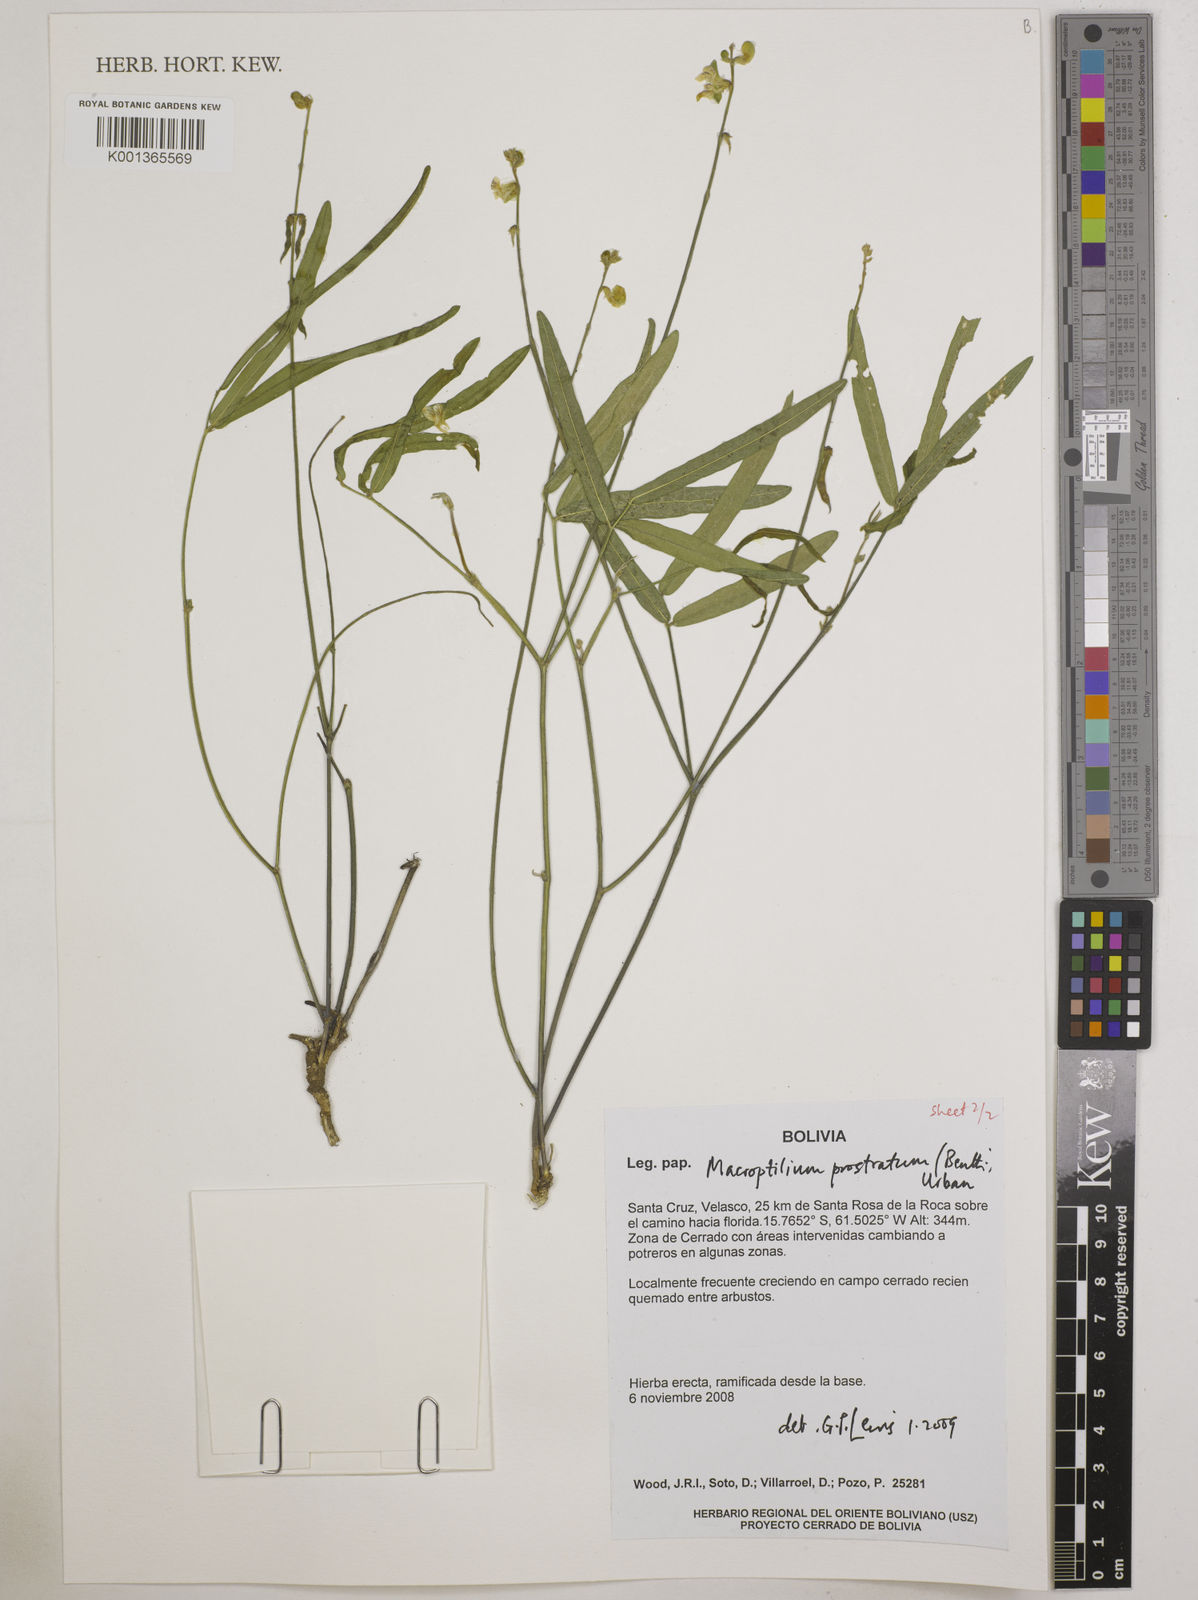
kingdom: Plantae
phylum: Tracheophyta
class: Magnoliopsida
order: Fabales
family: Fabaceae
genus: Macroptilium
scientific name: Macroptilium prostratum
